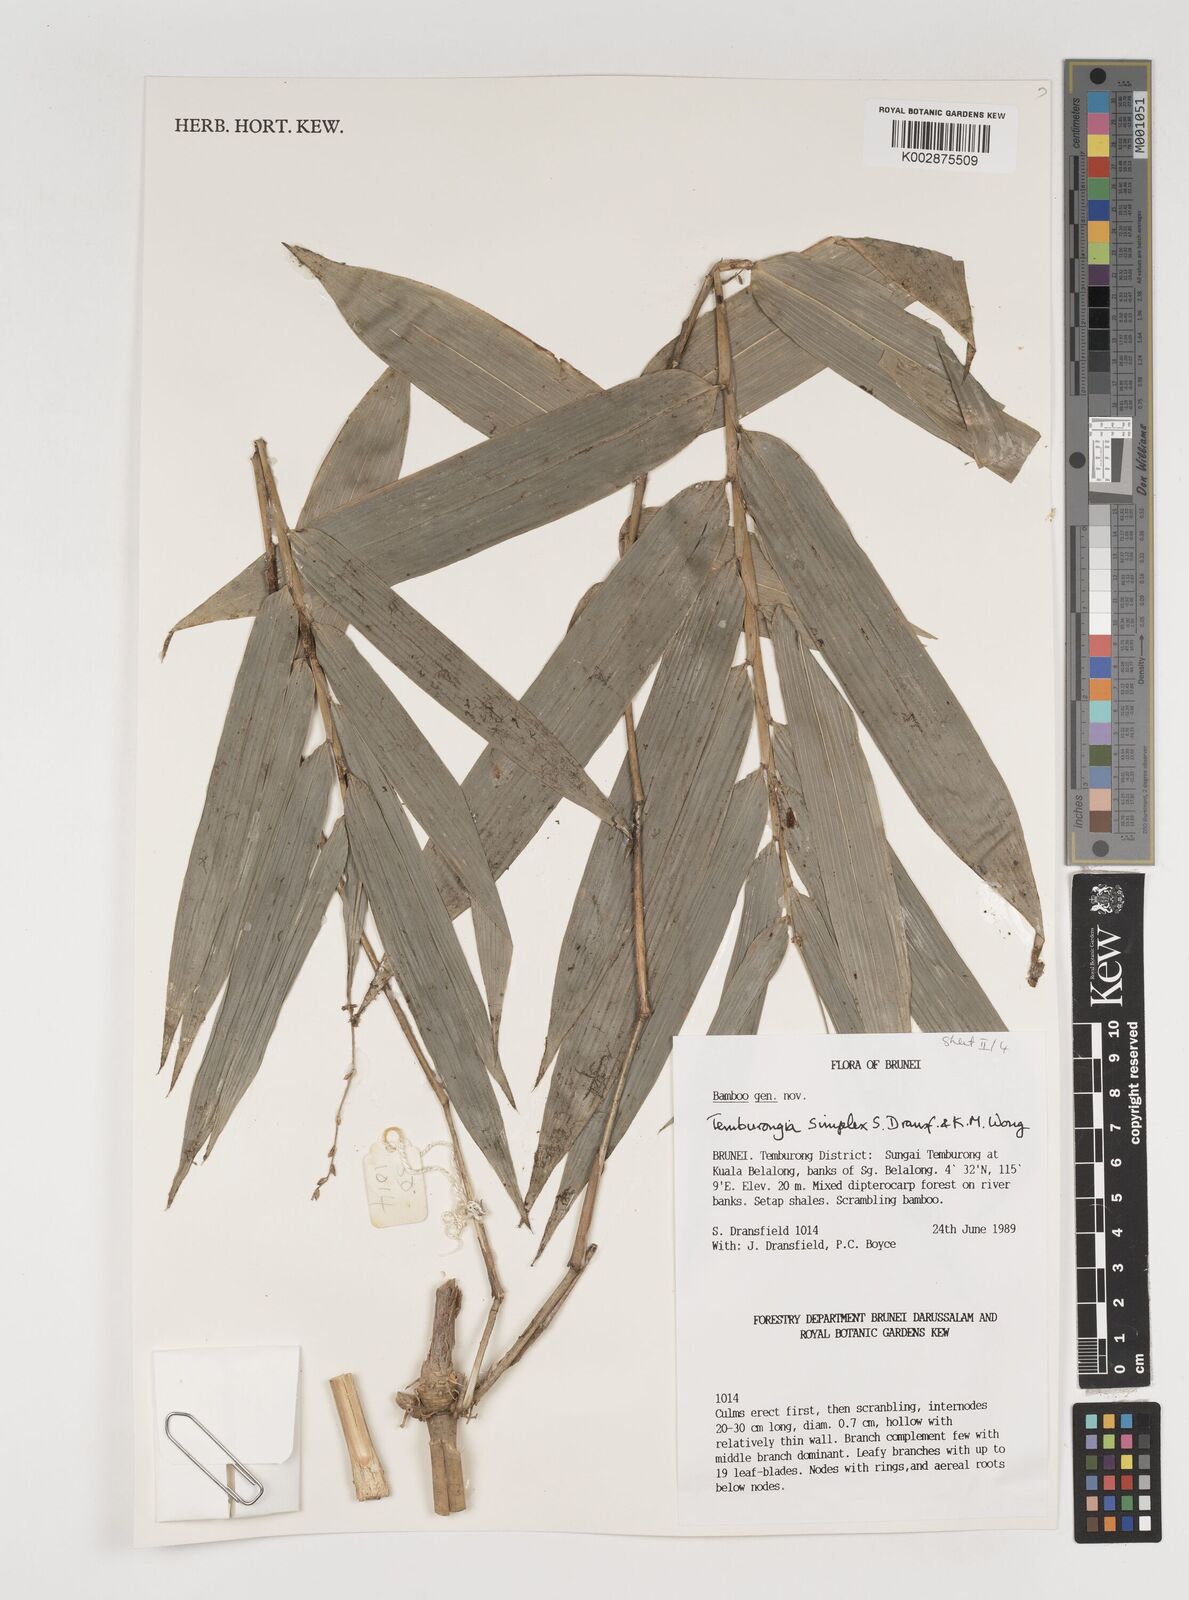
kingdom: Plantae
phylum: Tracheophyta
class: Liliopsida
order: Poales
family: Poaceae
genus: Temburongia
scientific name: Temburongia simplex
